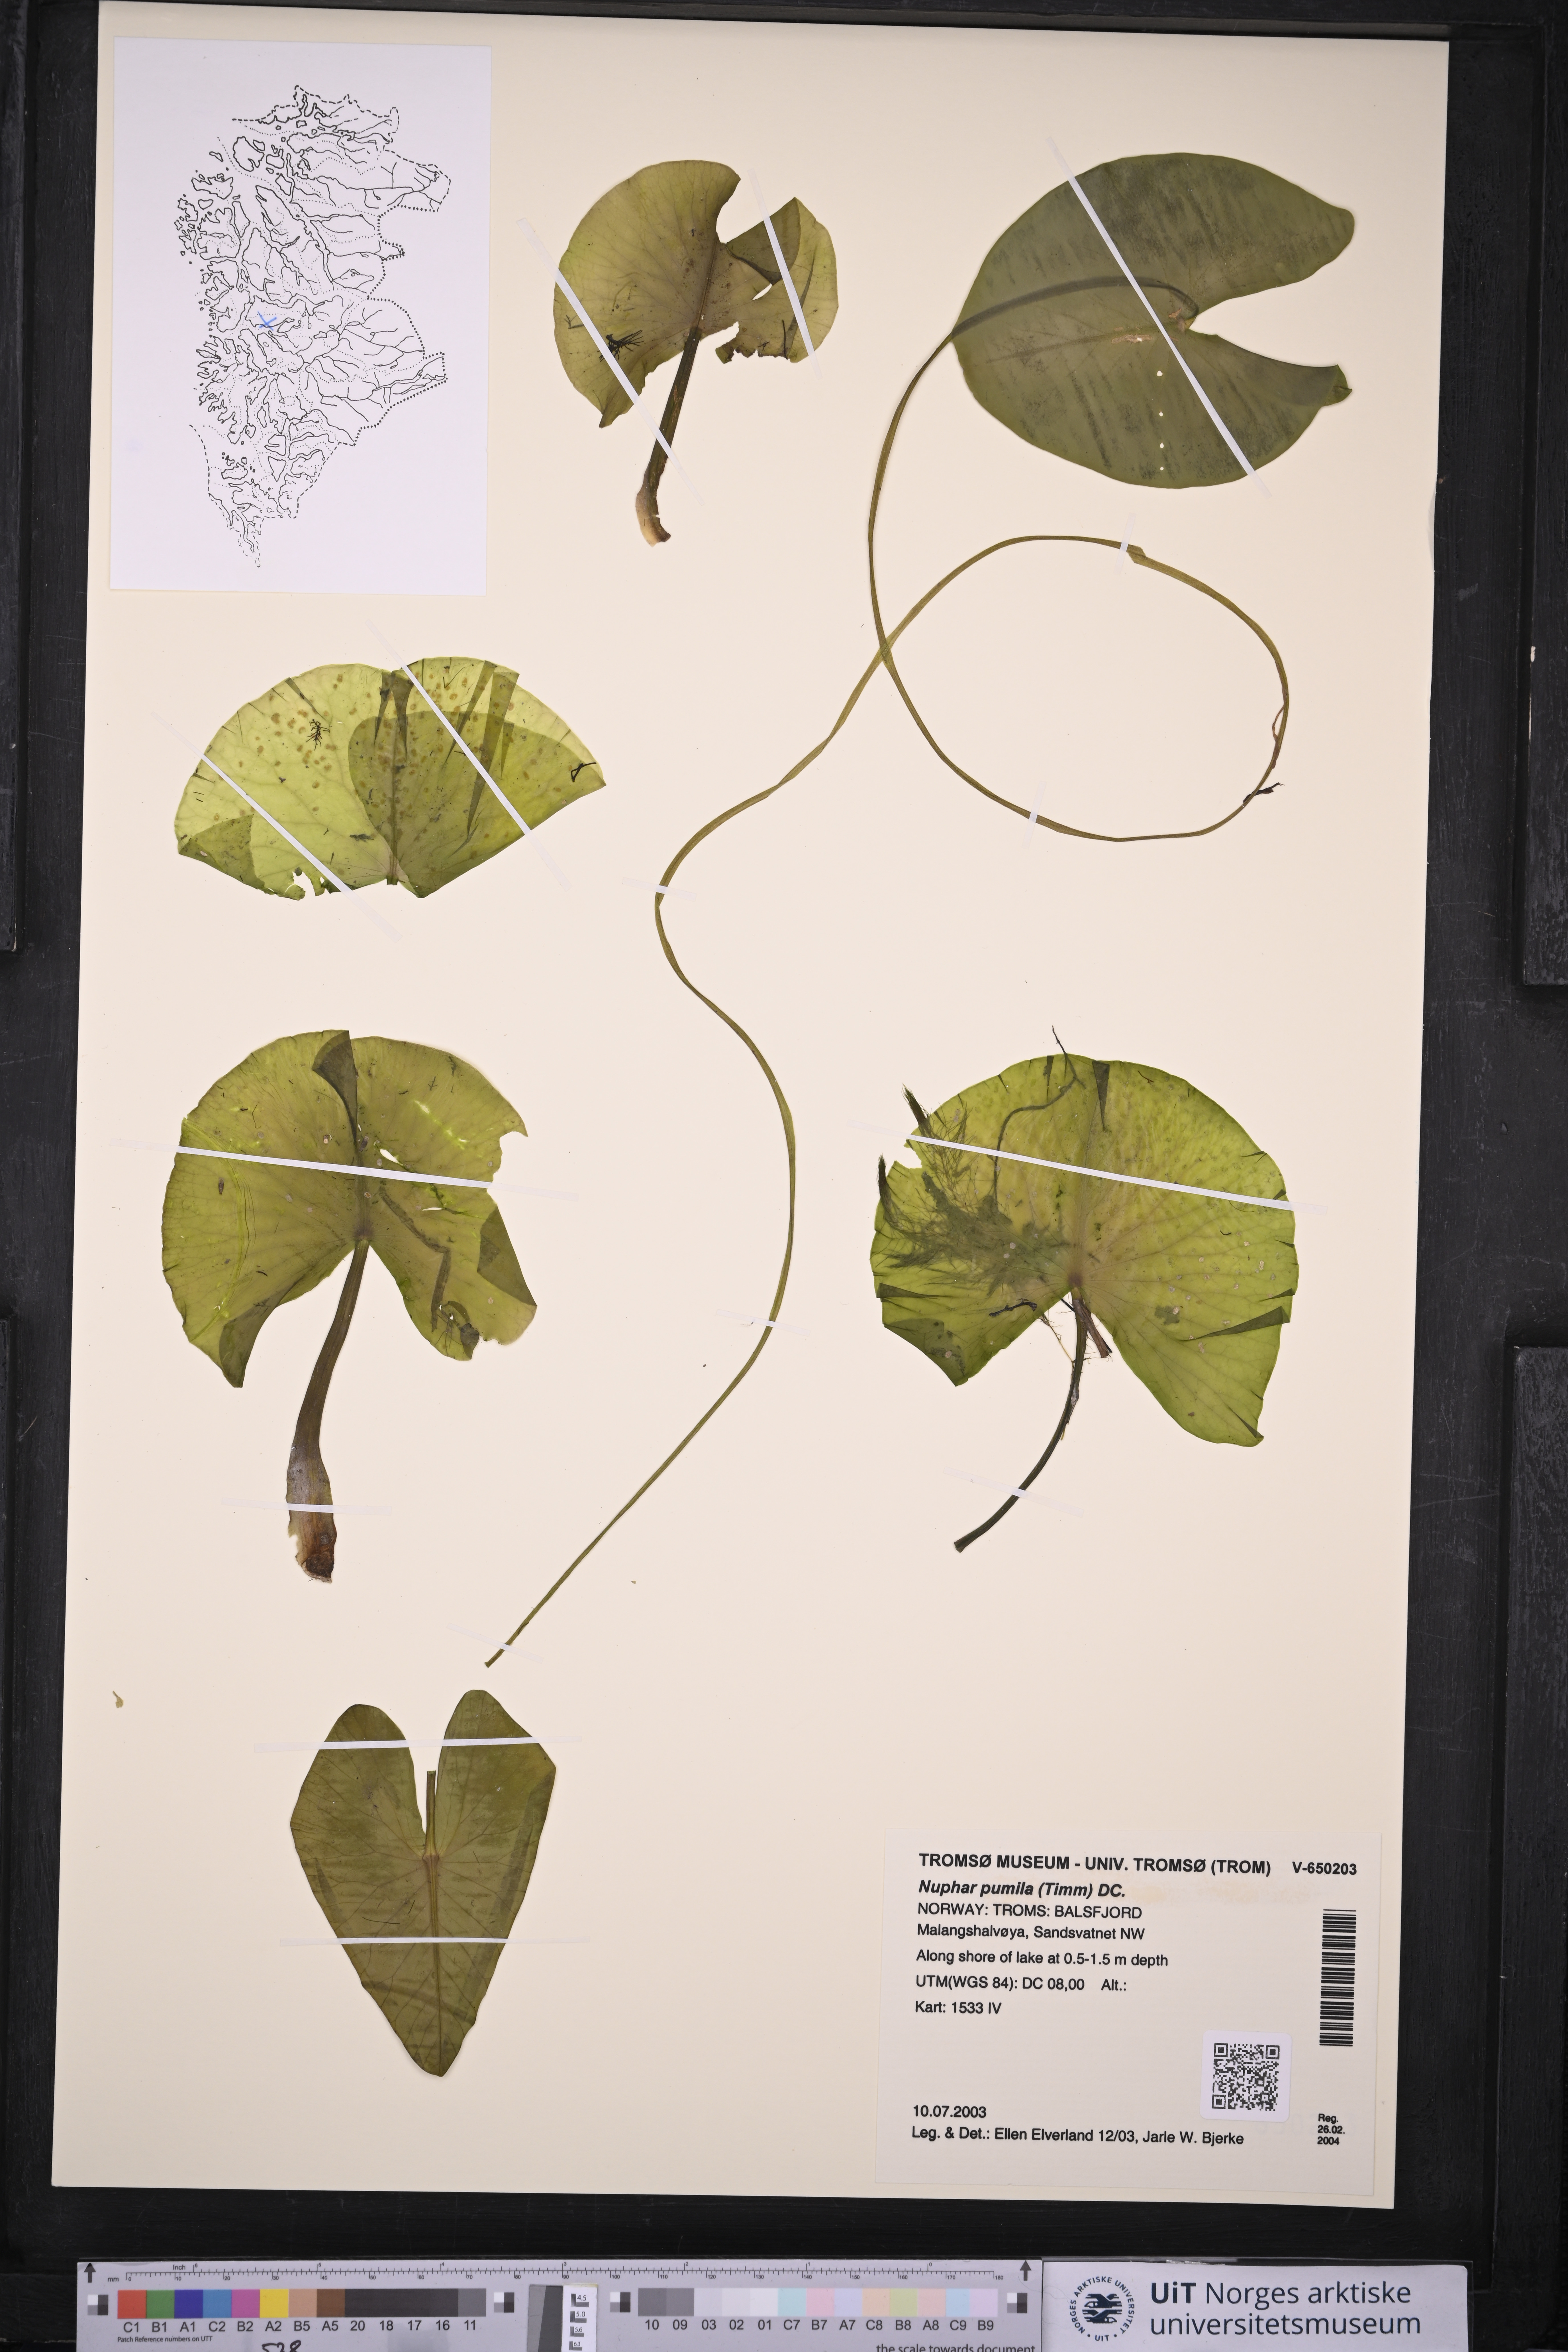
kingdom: Plantae
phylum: Tracheophyta
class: Magnoliopsida
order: Nymphaeales
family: Nymphaeaceae
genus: Nuphar
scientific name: Nuphar pumila
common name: Least water-lily
